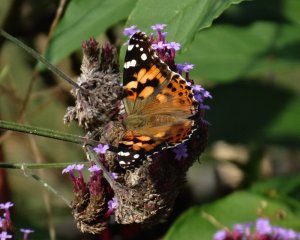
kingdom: Animalia
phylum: Arthropoda
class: Insecta
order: Lepidoptera
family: Nymphalidae
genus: Vanessa
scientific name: Vanessa cardui
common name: Painted Lady
